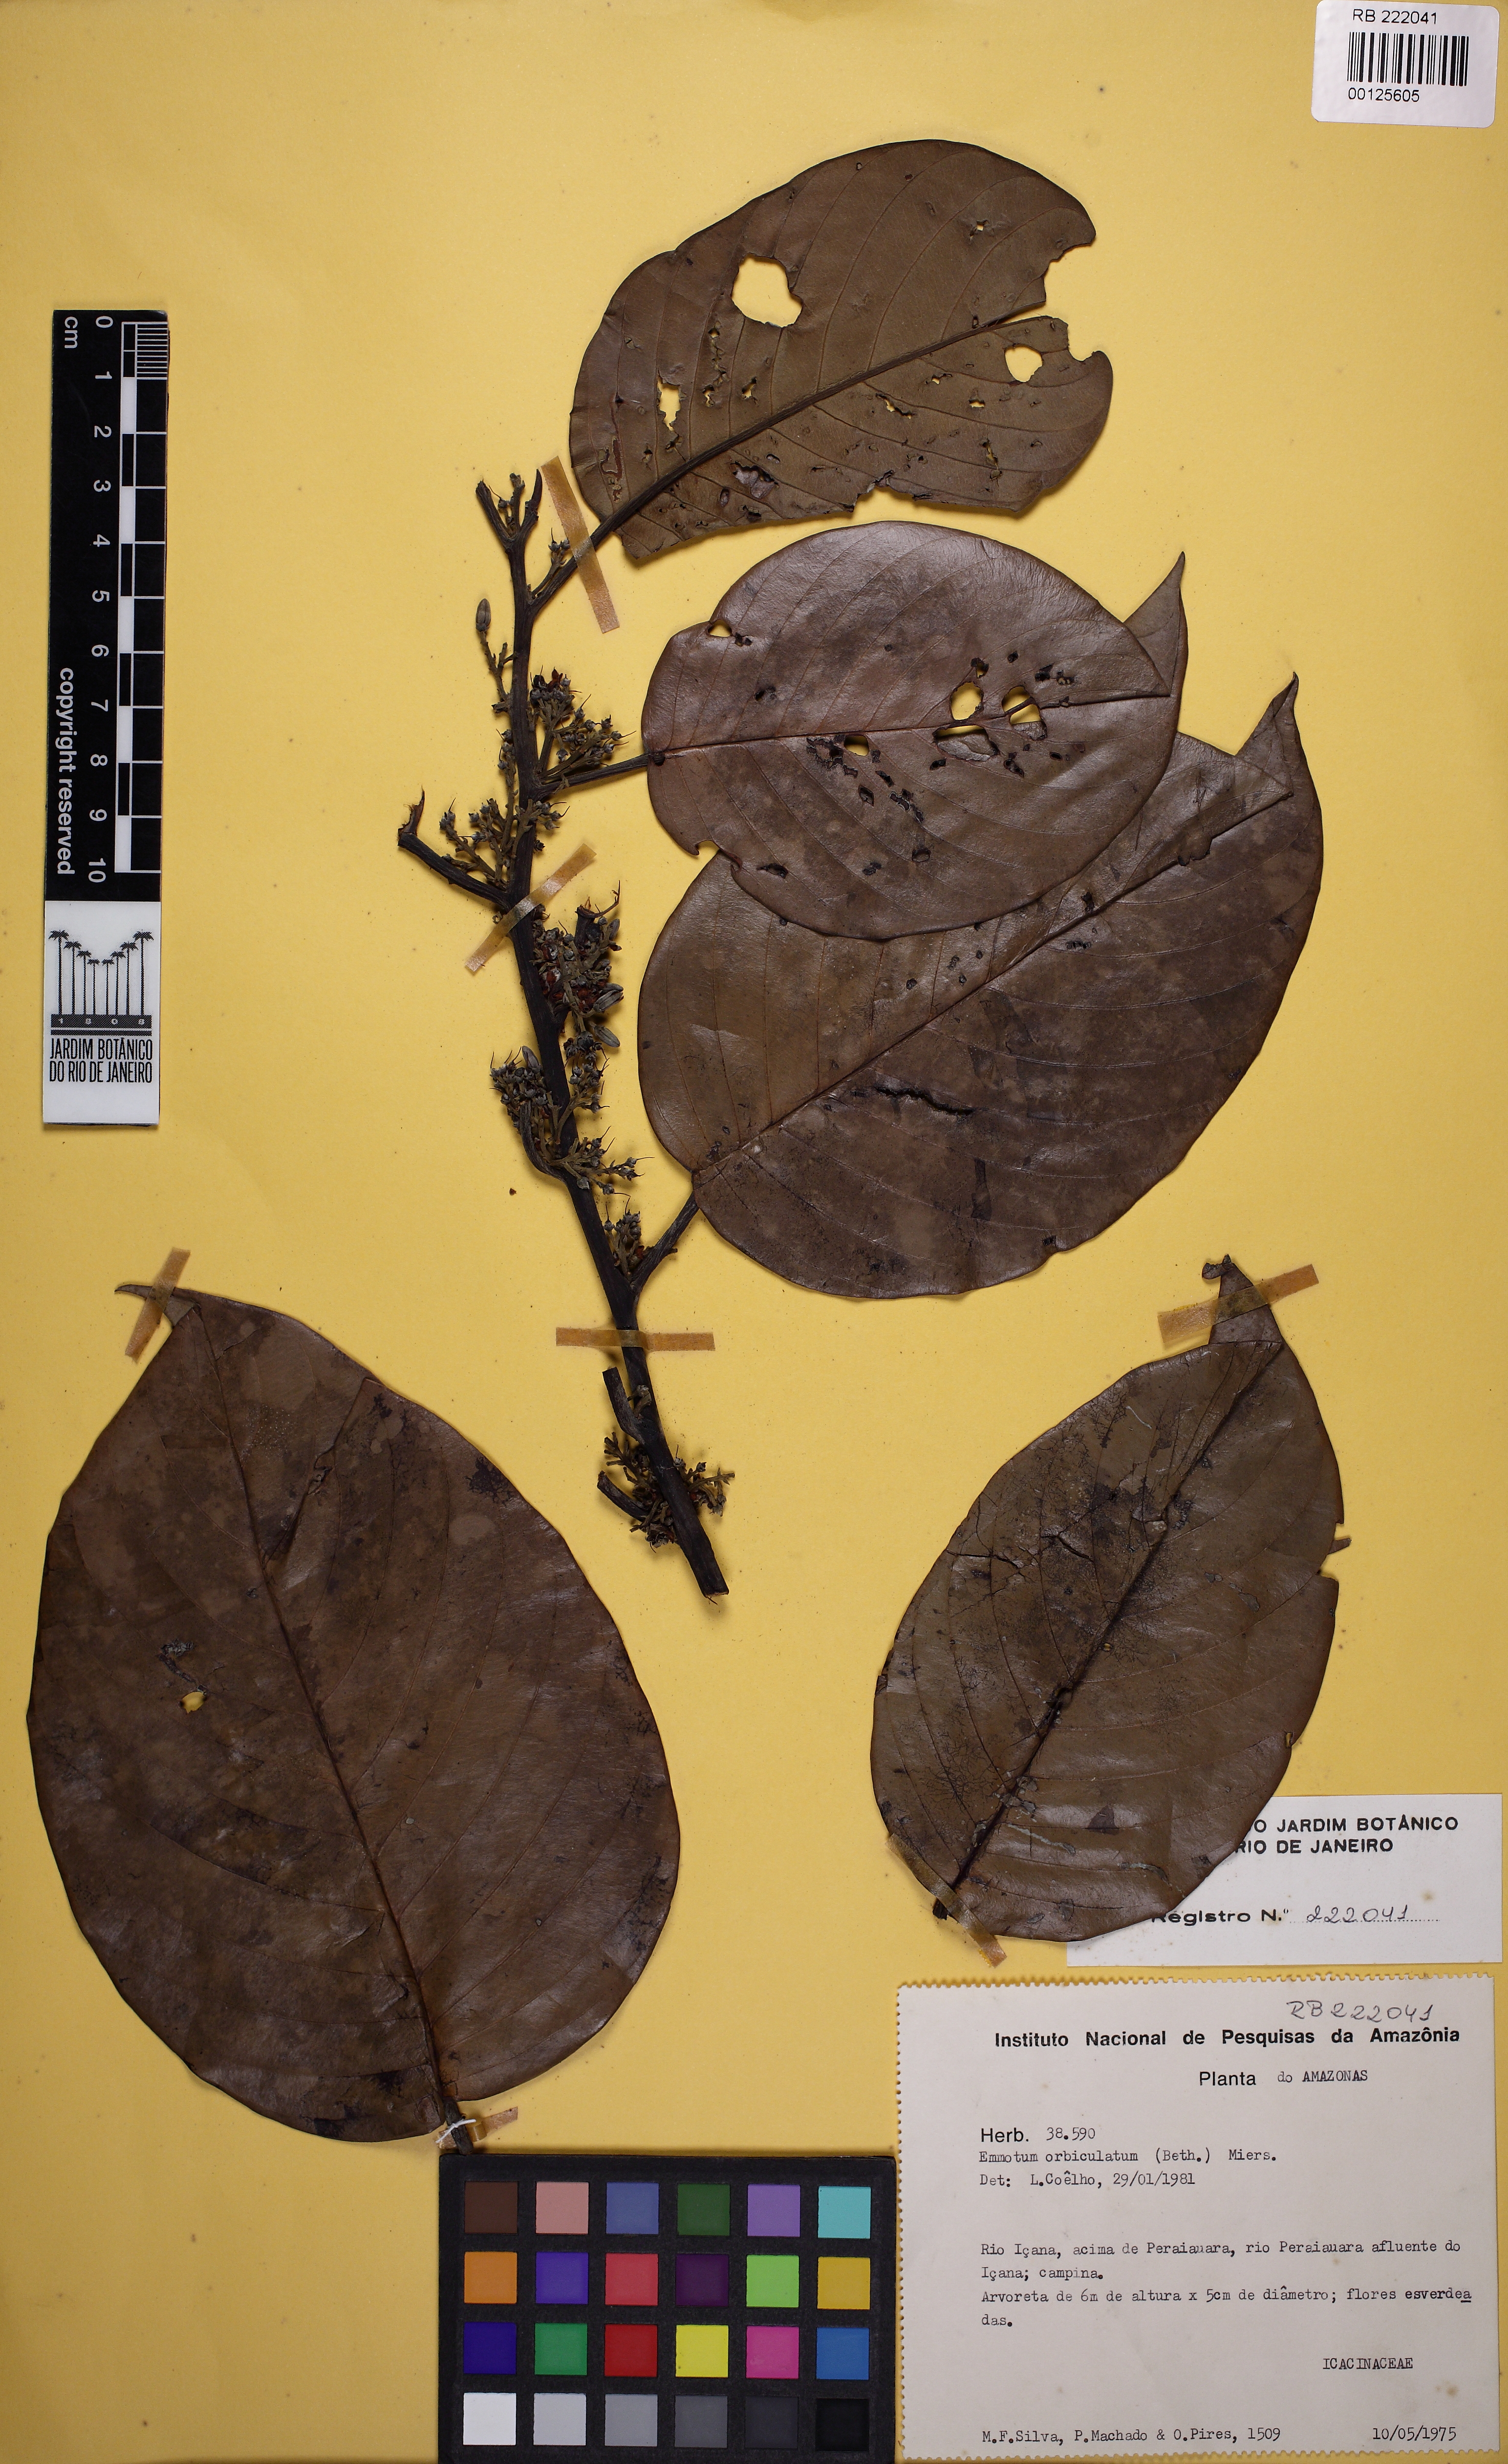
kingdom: Plantae
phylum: Tracheophyta
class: Magnoliopsida
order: Metteniusales
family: Metteniusaceae
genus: Emmotum
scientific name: Emmotum orbiculatum
